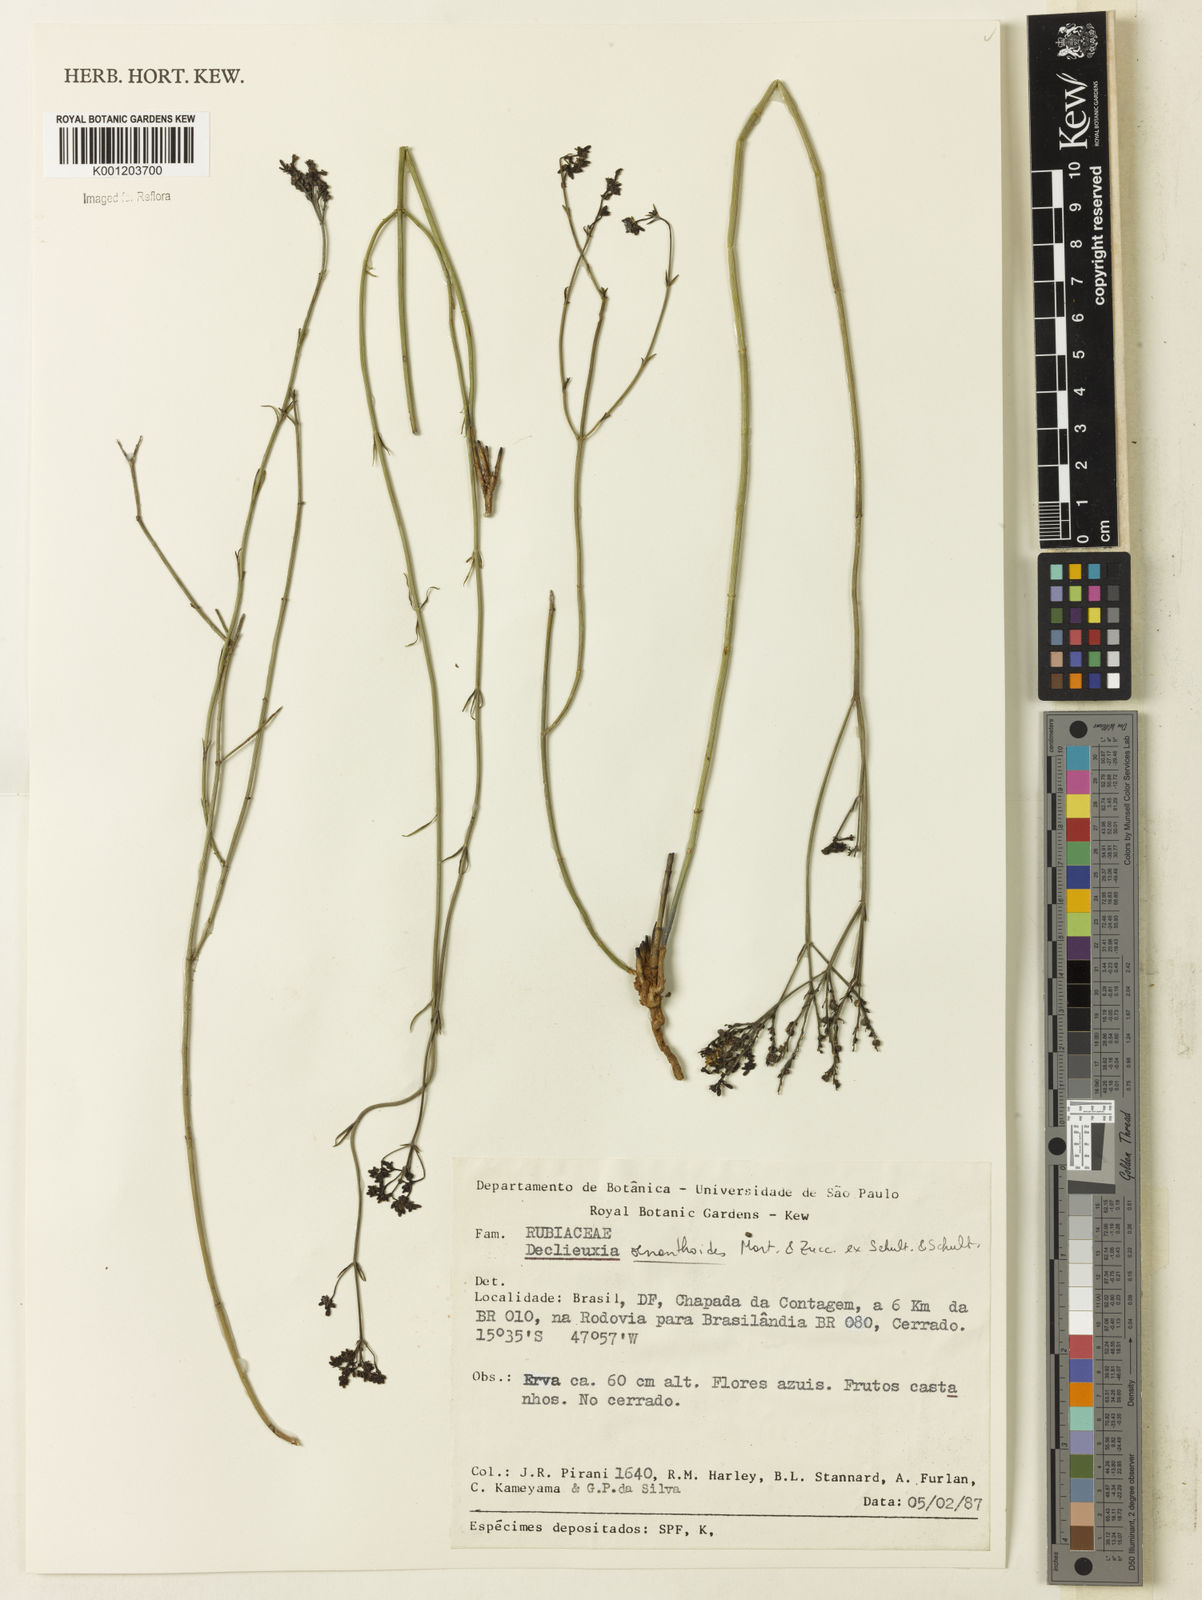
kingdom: Plantae
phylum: Tracheophyta
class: Magnoliopsida
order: Gentianales
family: Rubiaceae
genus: Declieuxia
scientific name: Declieuxia
